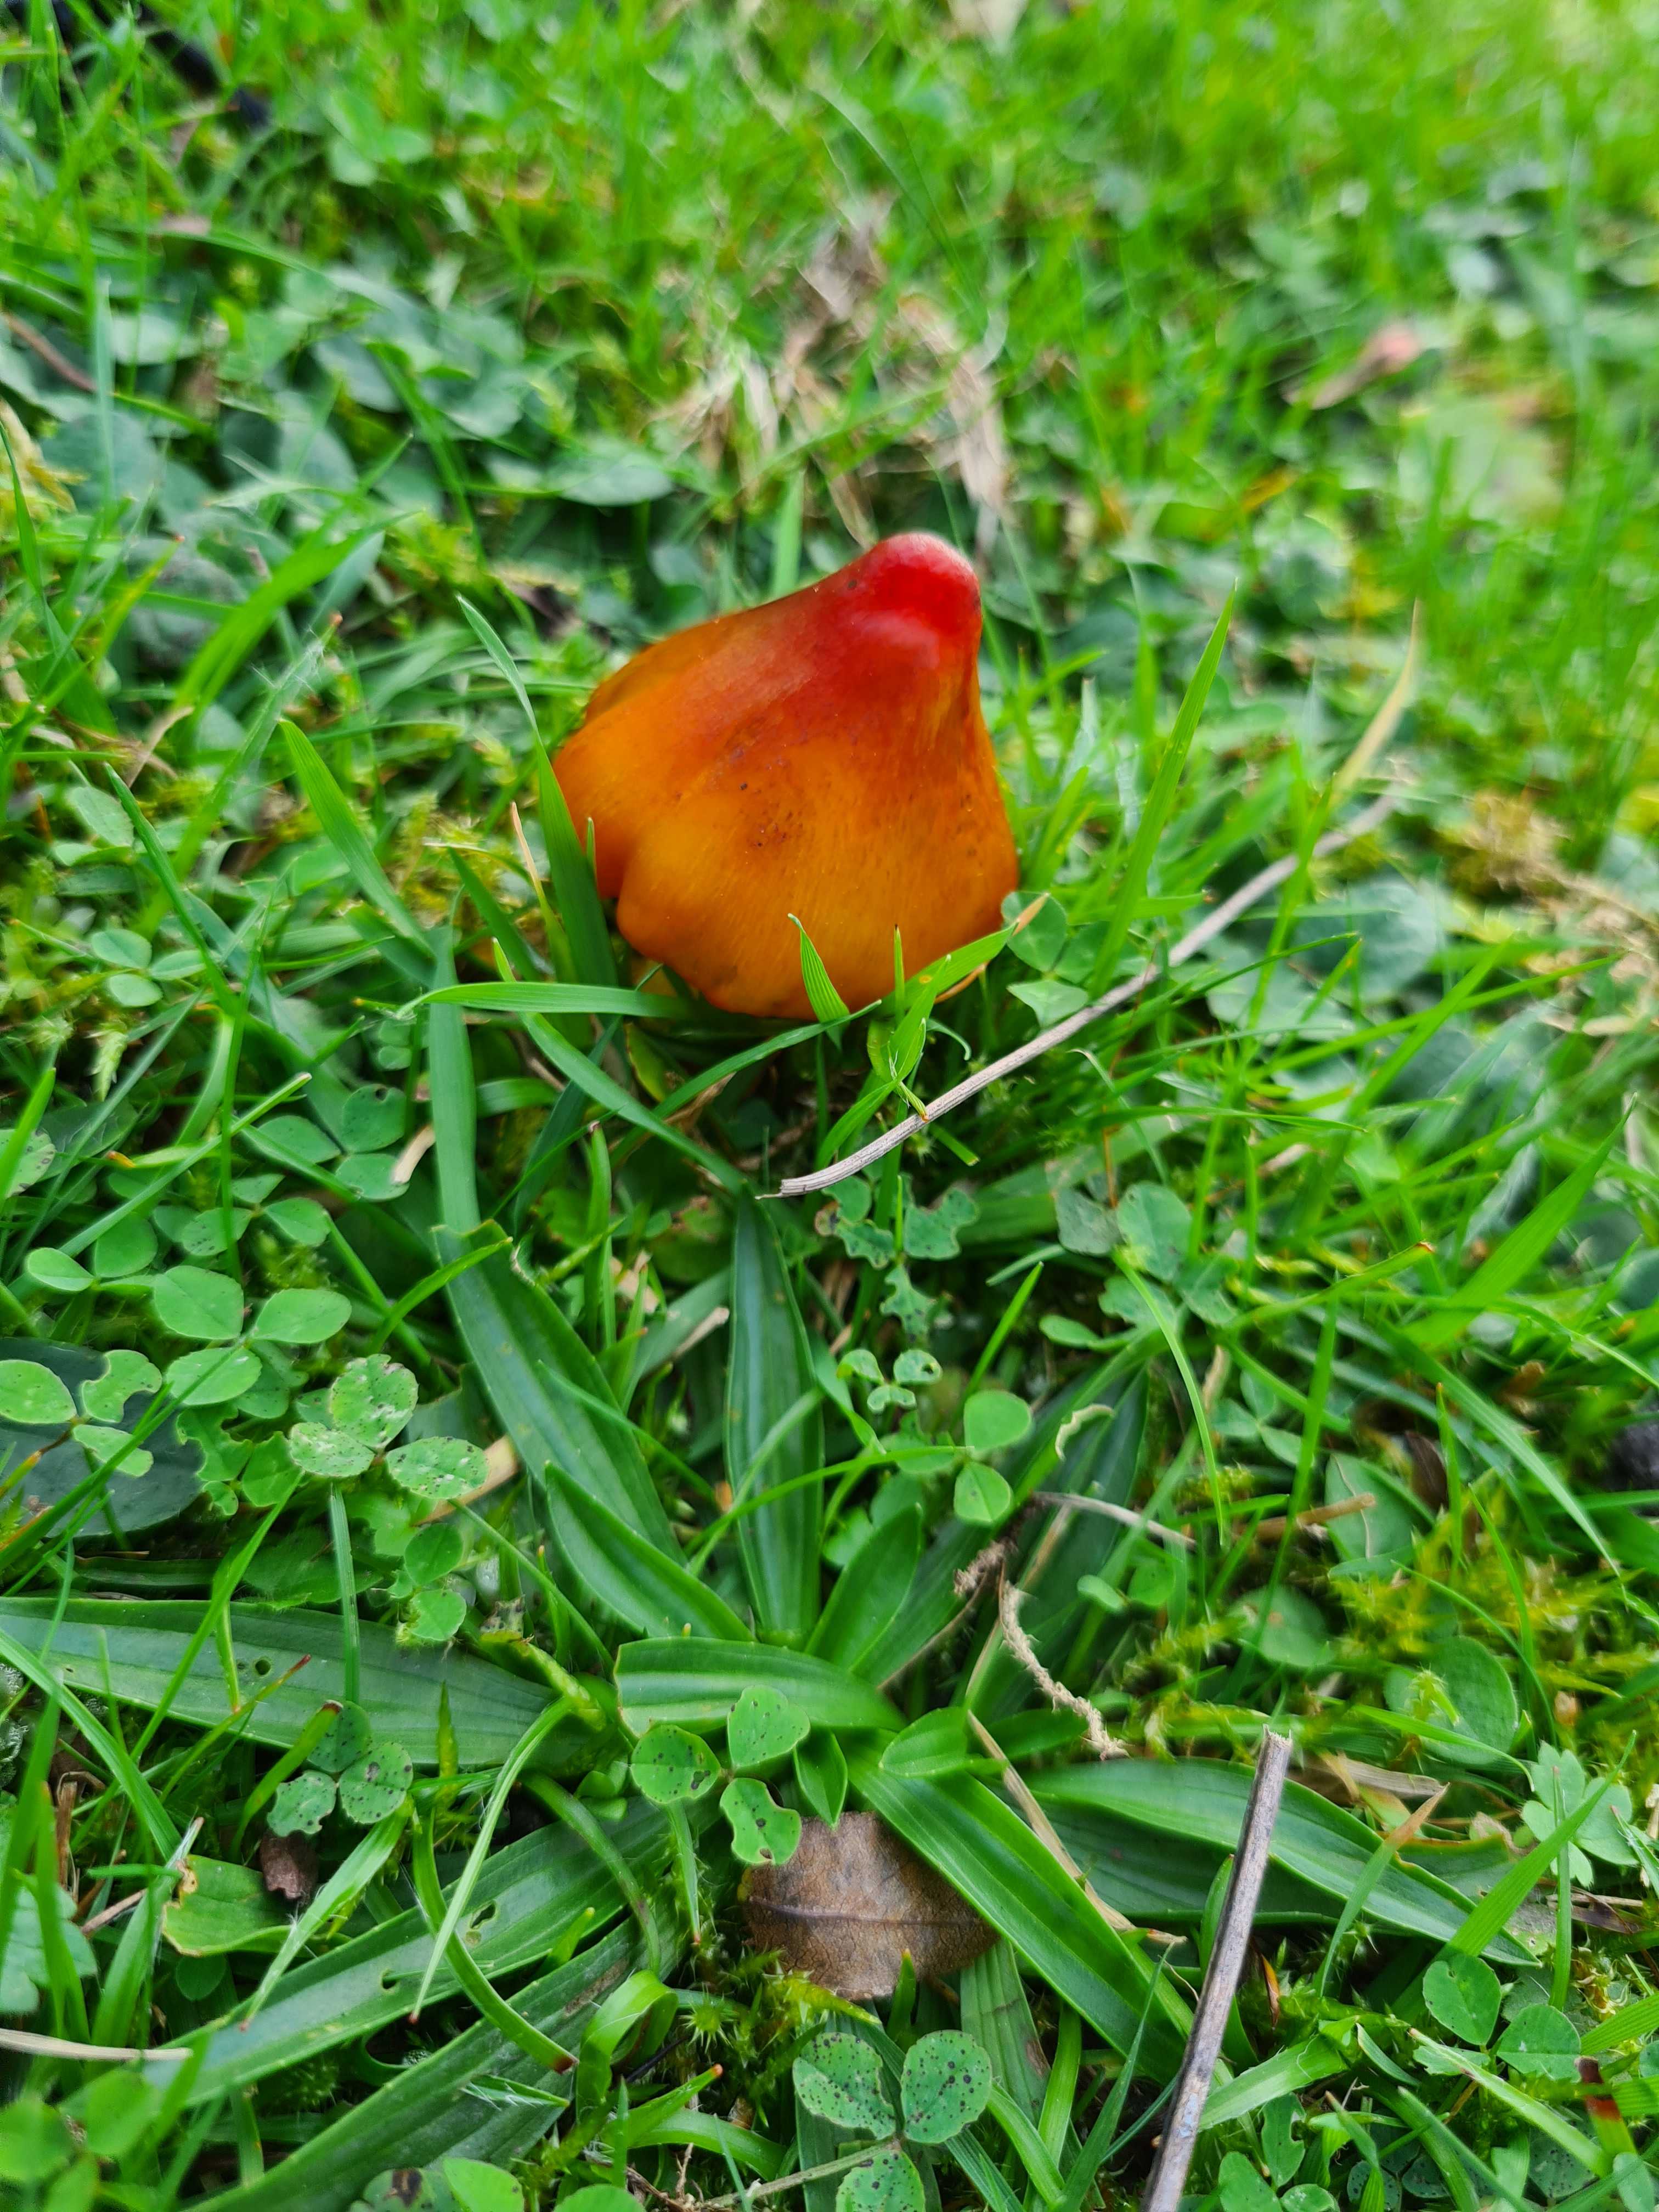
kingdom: Fungi
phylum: Basidiomycota
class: Agaricomycetes
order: Agaricales
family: Hygrophoraceae
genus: Hygrocybe
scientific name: Hygrocybe conica
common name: kegle-vokshat
